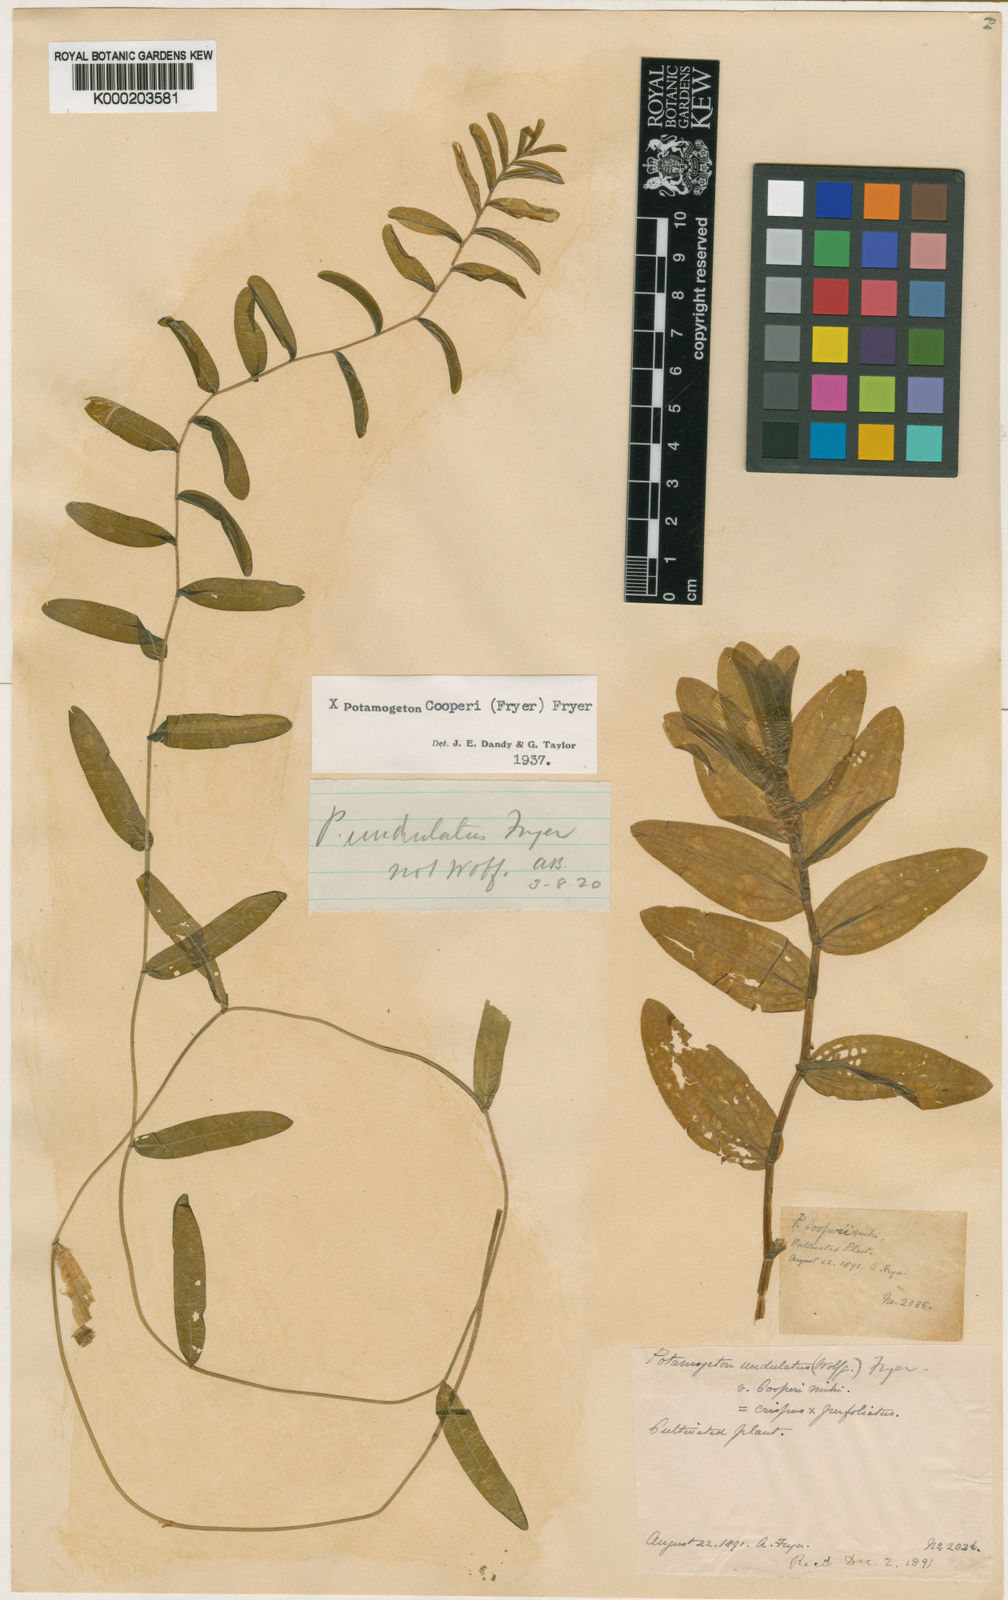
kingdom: Plantae
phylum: Tracheophyta
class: Liliopsida
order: Alismatales
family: Potamogetonaceae
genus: Potamogeton
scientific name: Potamogeton crispus
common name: Curled pondweed
